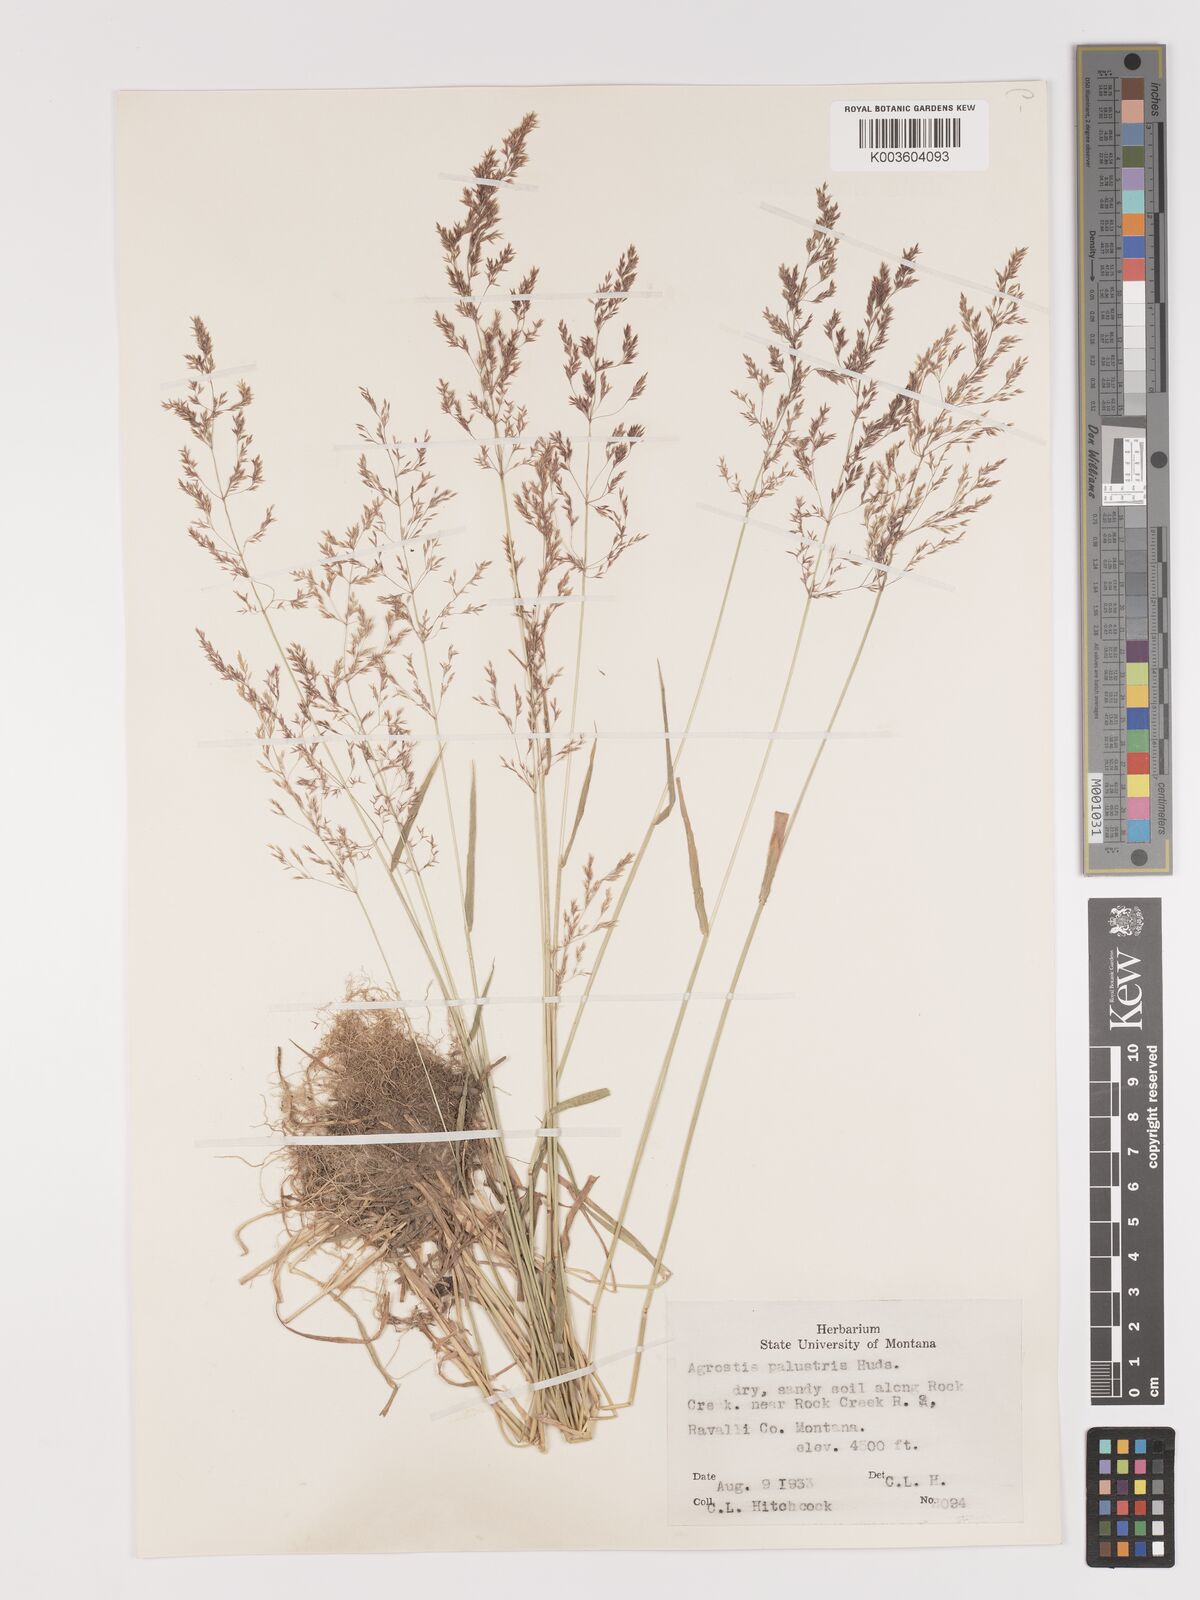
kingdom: Plantae
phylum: Tracheophyta
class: Liliopsida
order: Poales
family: Poaceae
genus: Agrostis
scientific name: Agrostis gigantea
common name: Black bent
